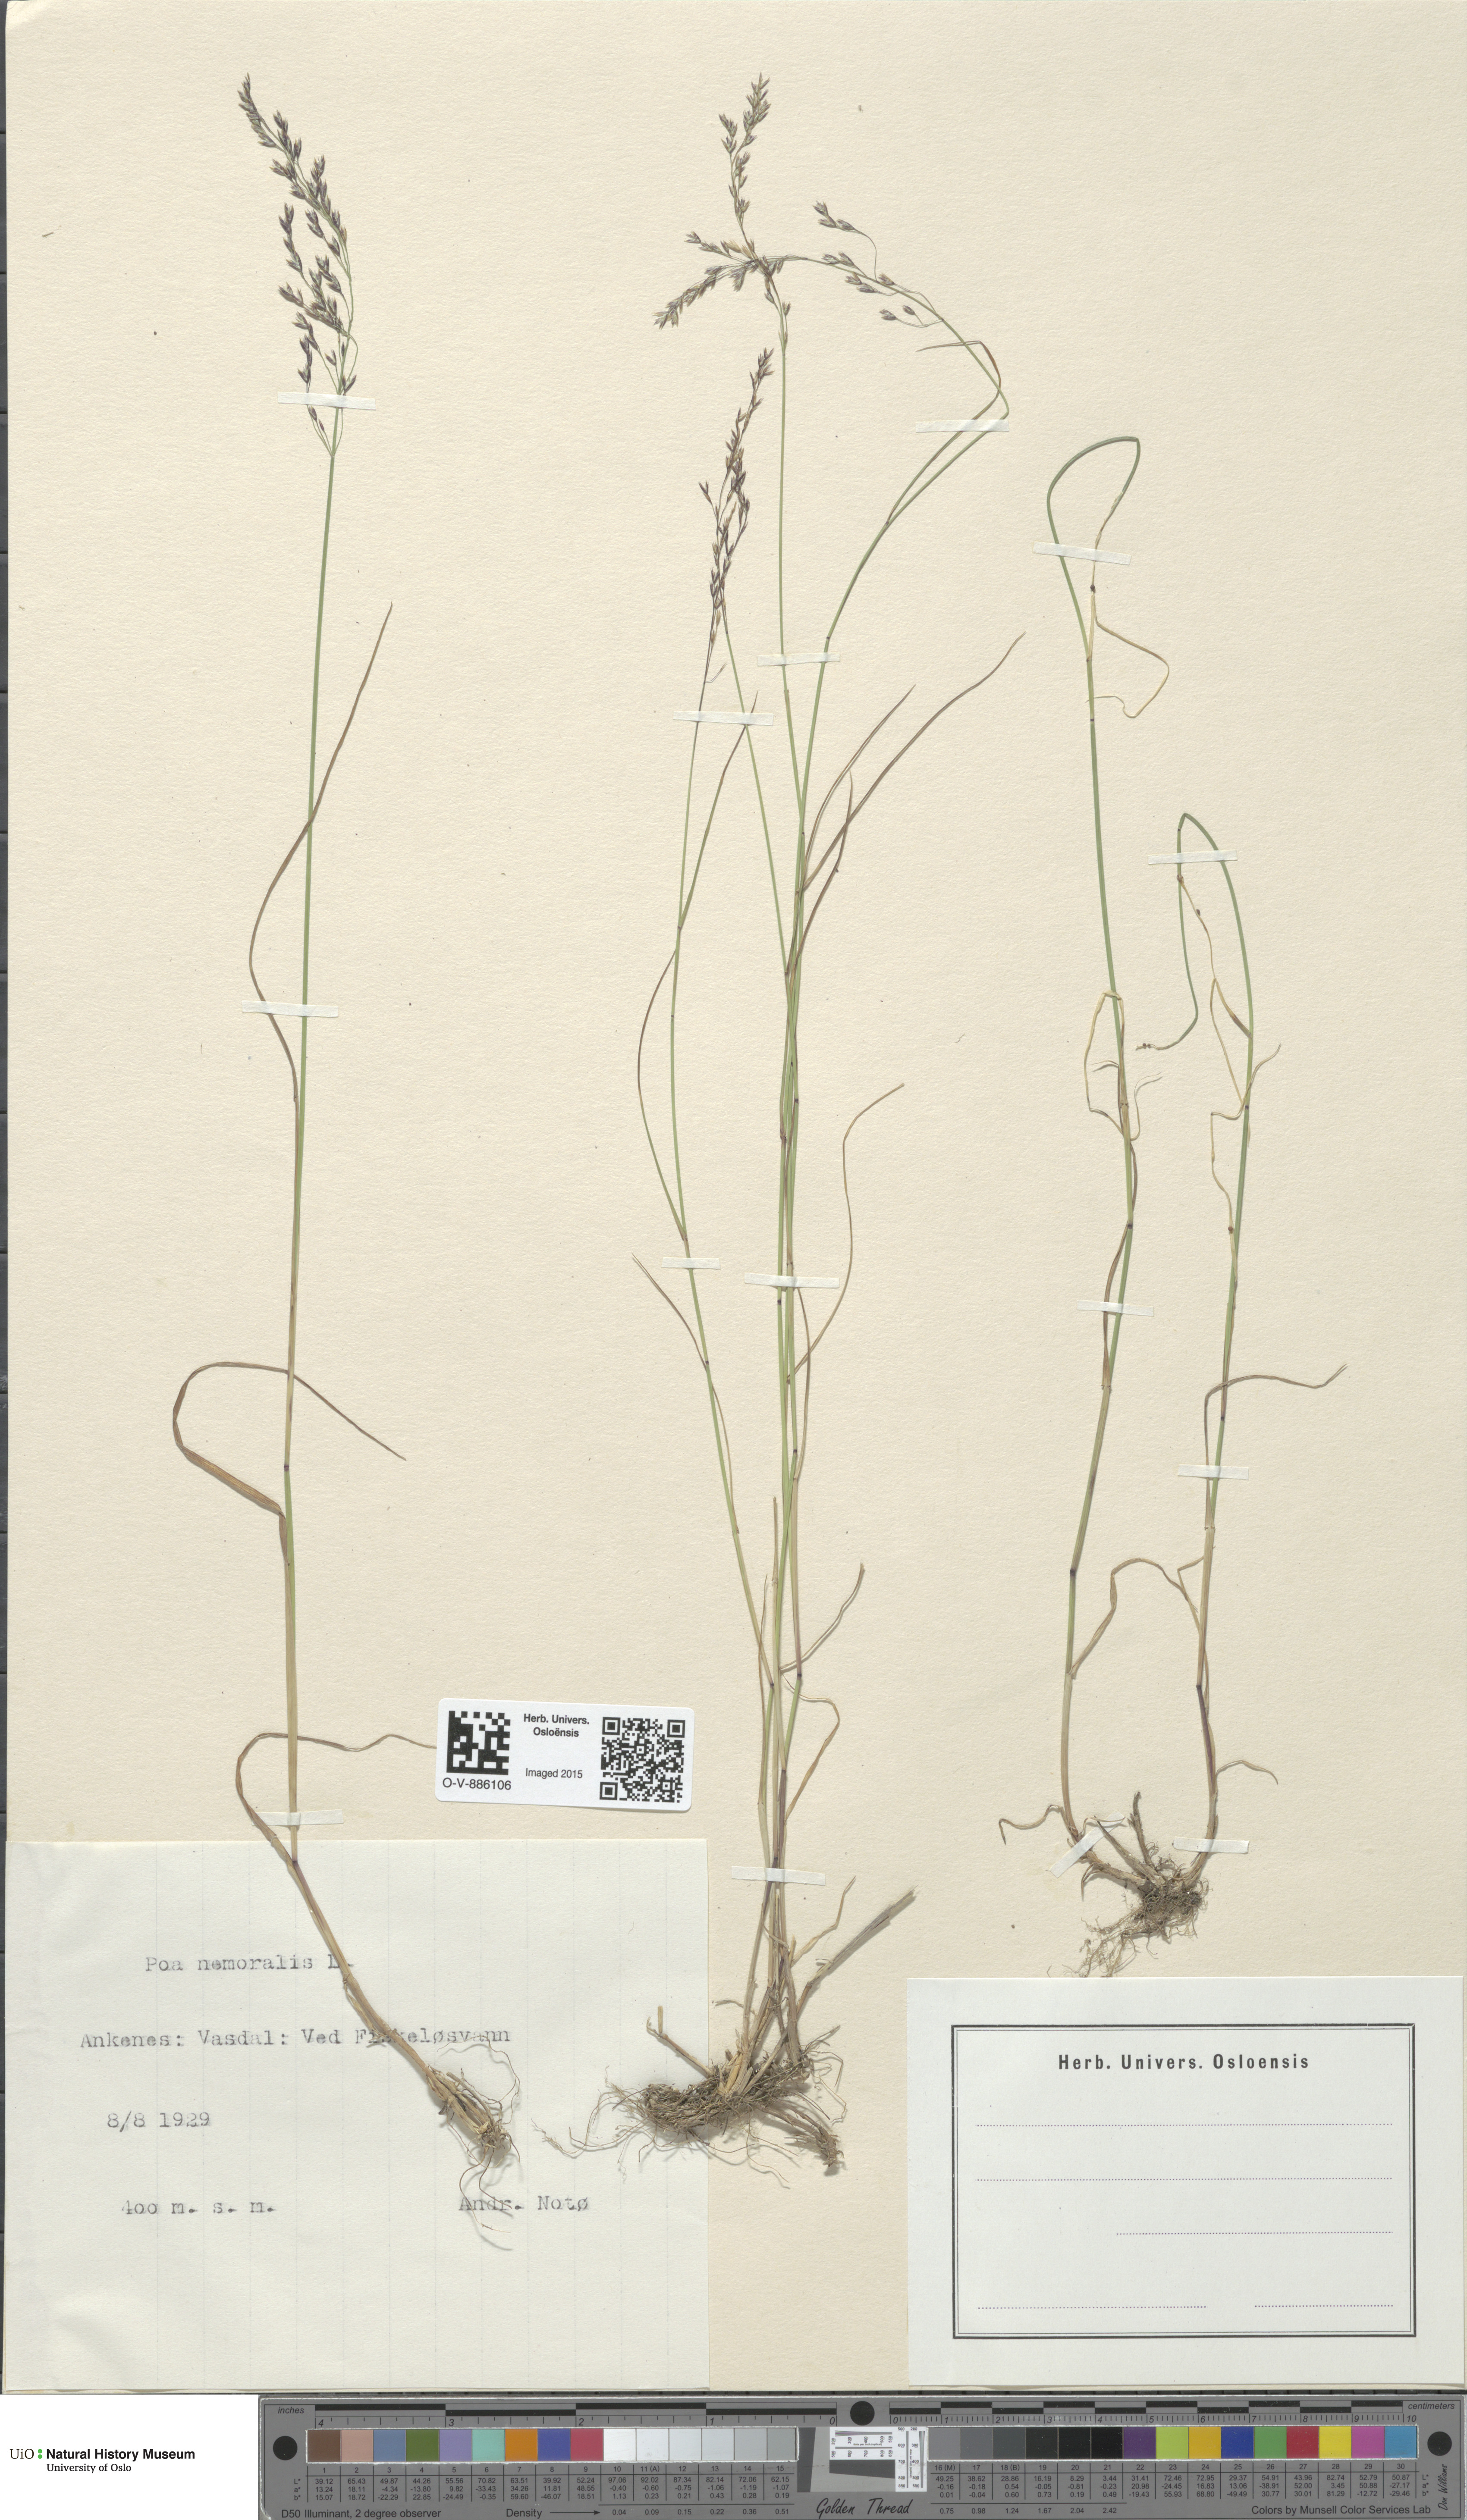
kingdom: Plantae
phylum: Tracheophyta
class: Liliopsida
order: Poales
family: Poaceae
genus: Poa
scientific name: Poa nemoralis
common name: Wood bluegrass
